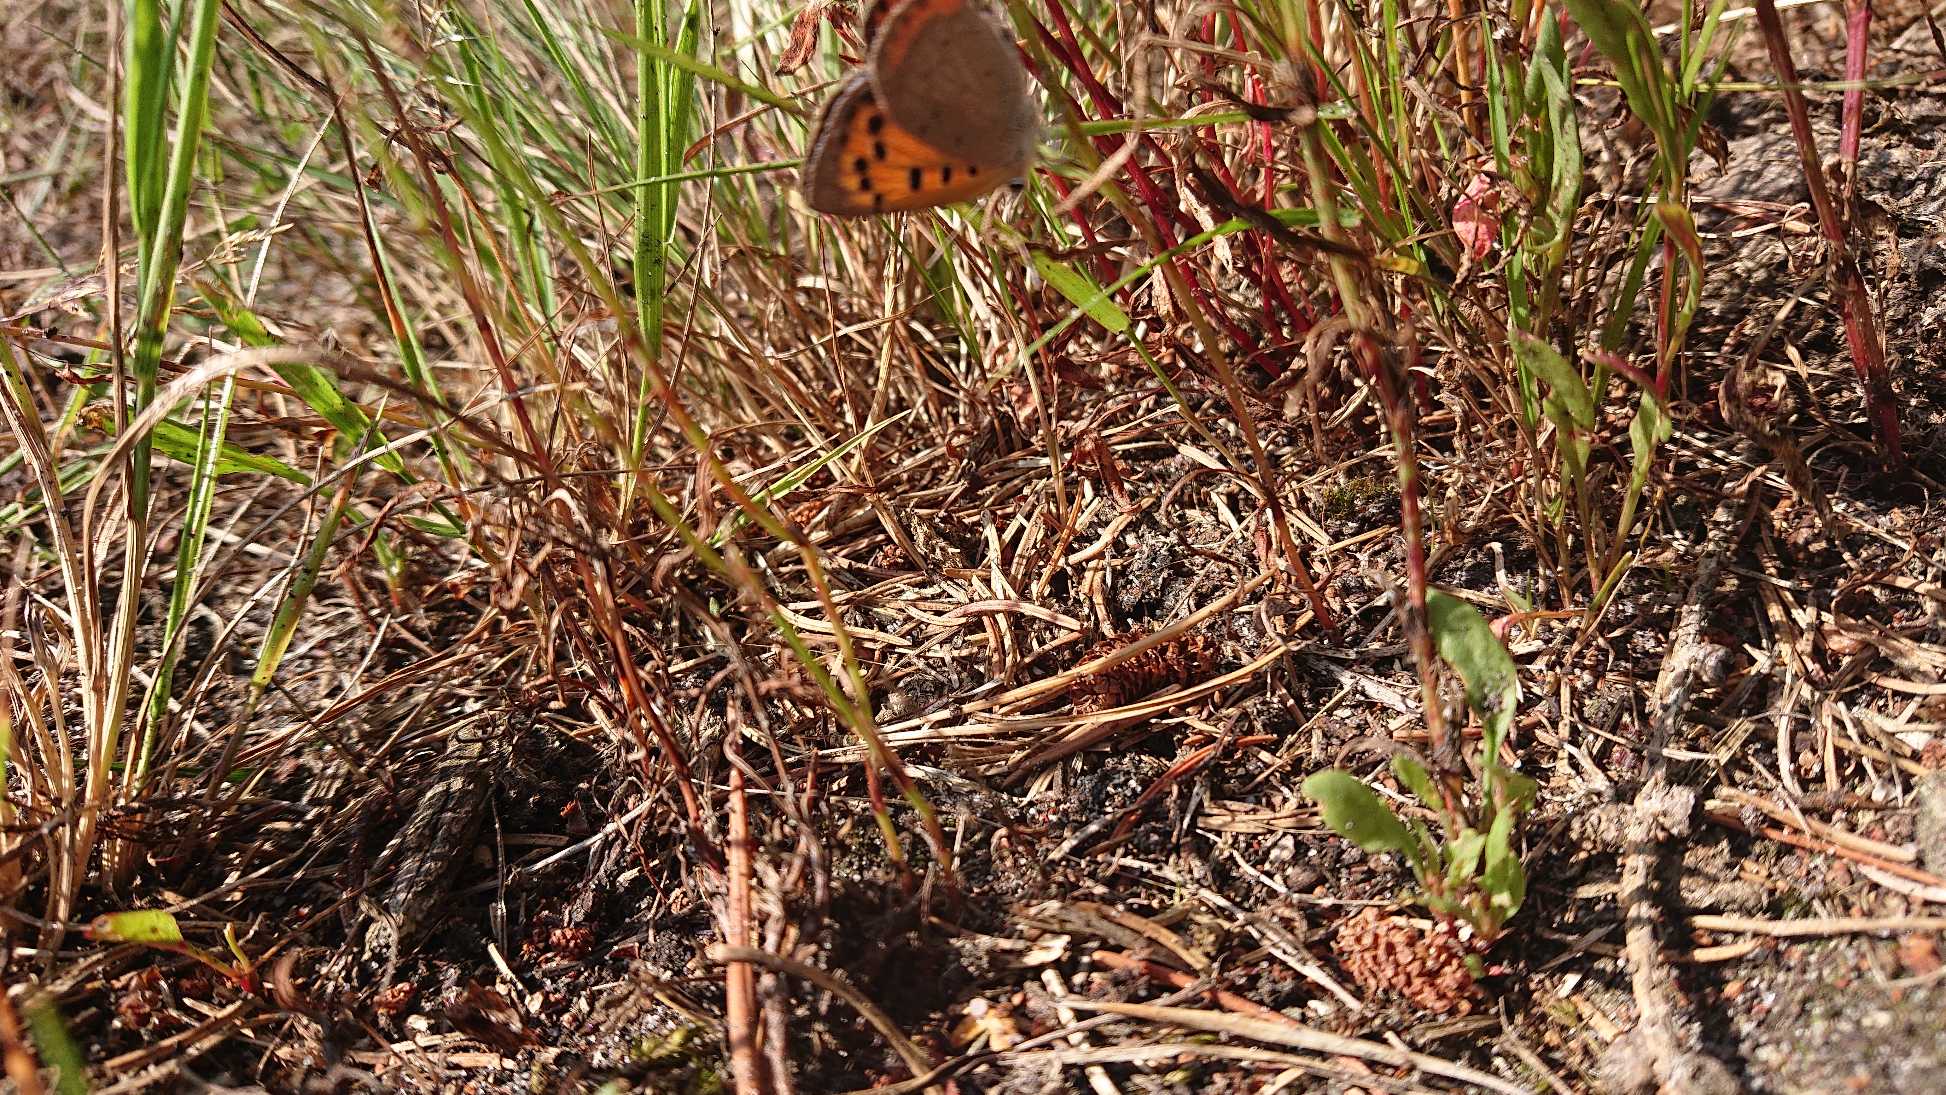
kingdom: Animalia
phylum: Arthropoda
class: Insecta
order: Lepidoptera
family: Lycaenidae
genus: Lycaena
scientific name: Lycaena phlaeas
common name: Lille ildfugl
